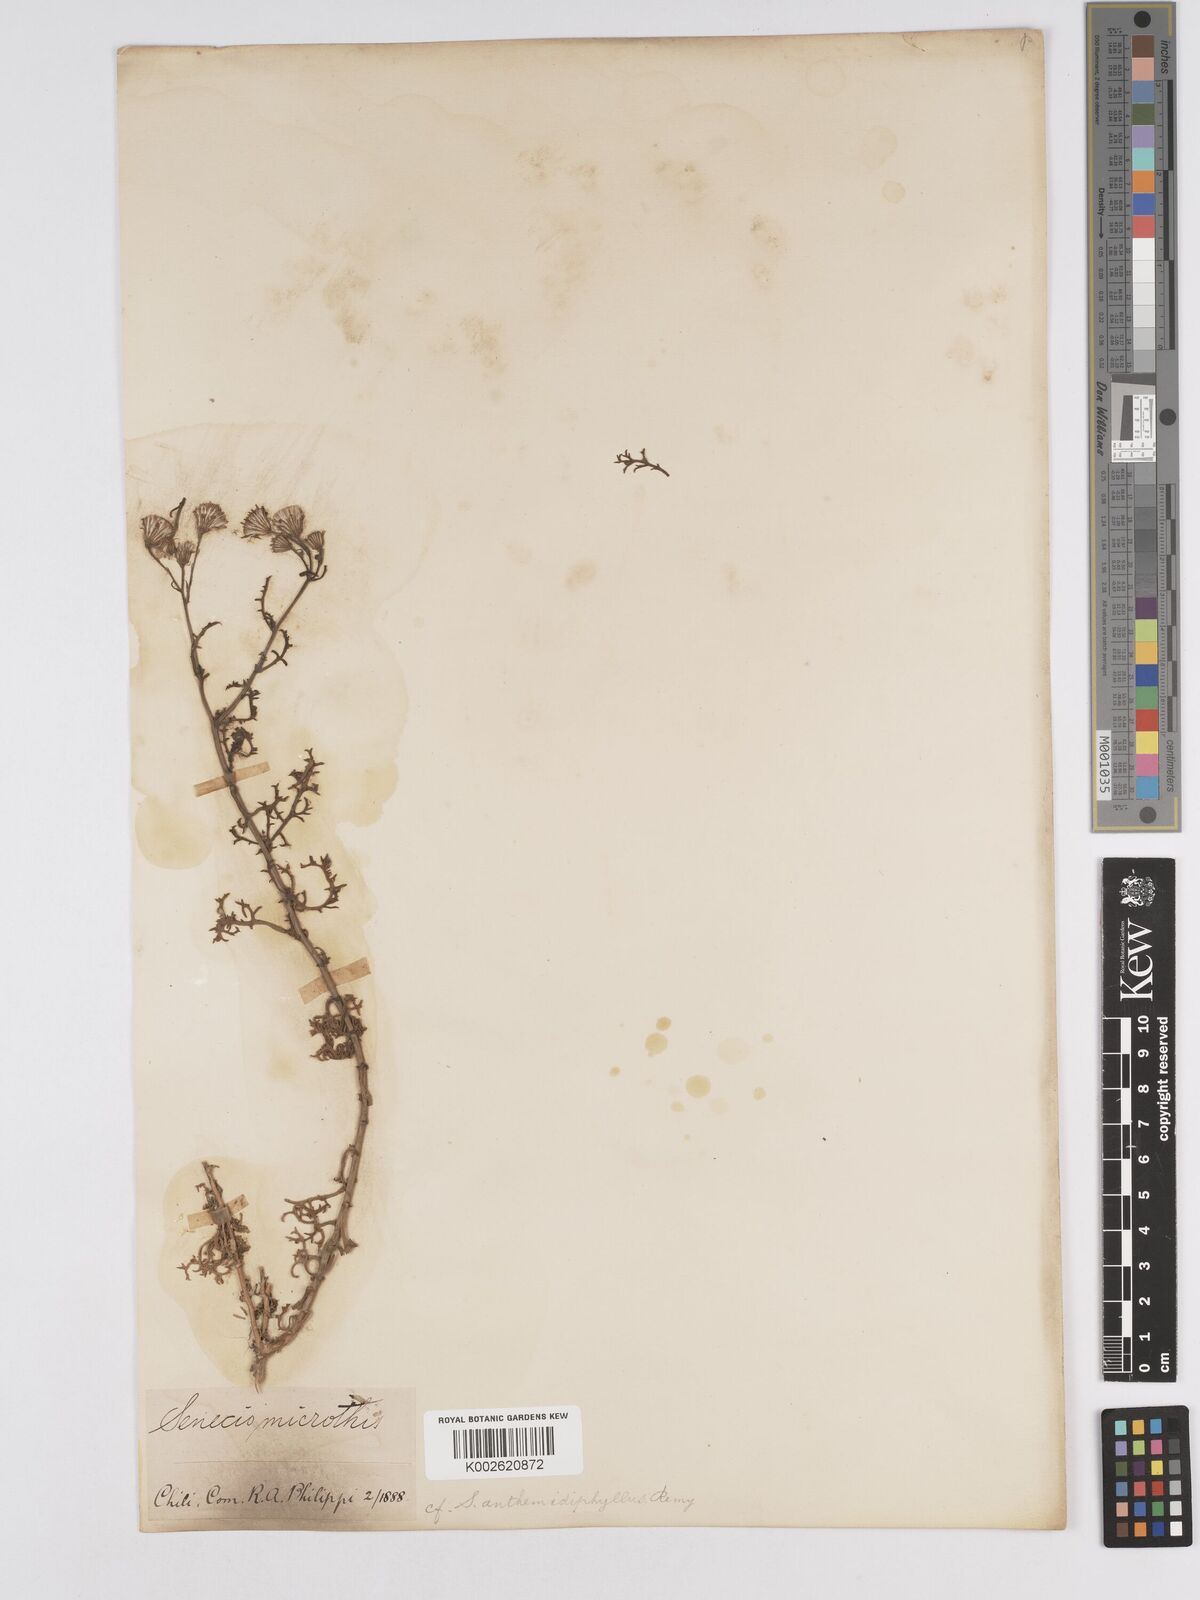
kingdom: Plantae
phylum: Tracheophyta
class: Magnoliopsida
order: Asterales
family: Asteraceae
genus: Senecio
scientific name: Senecio microtis
